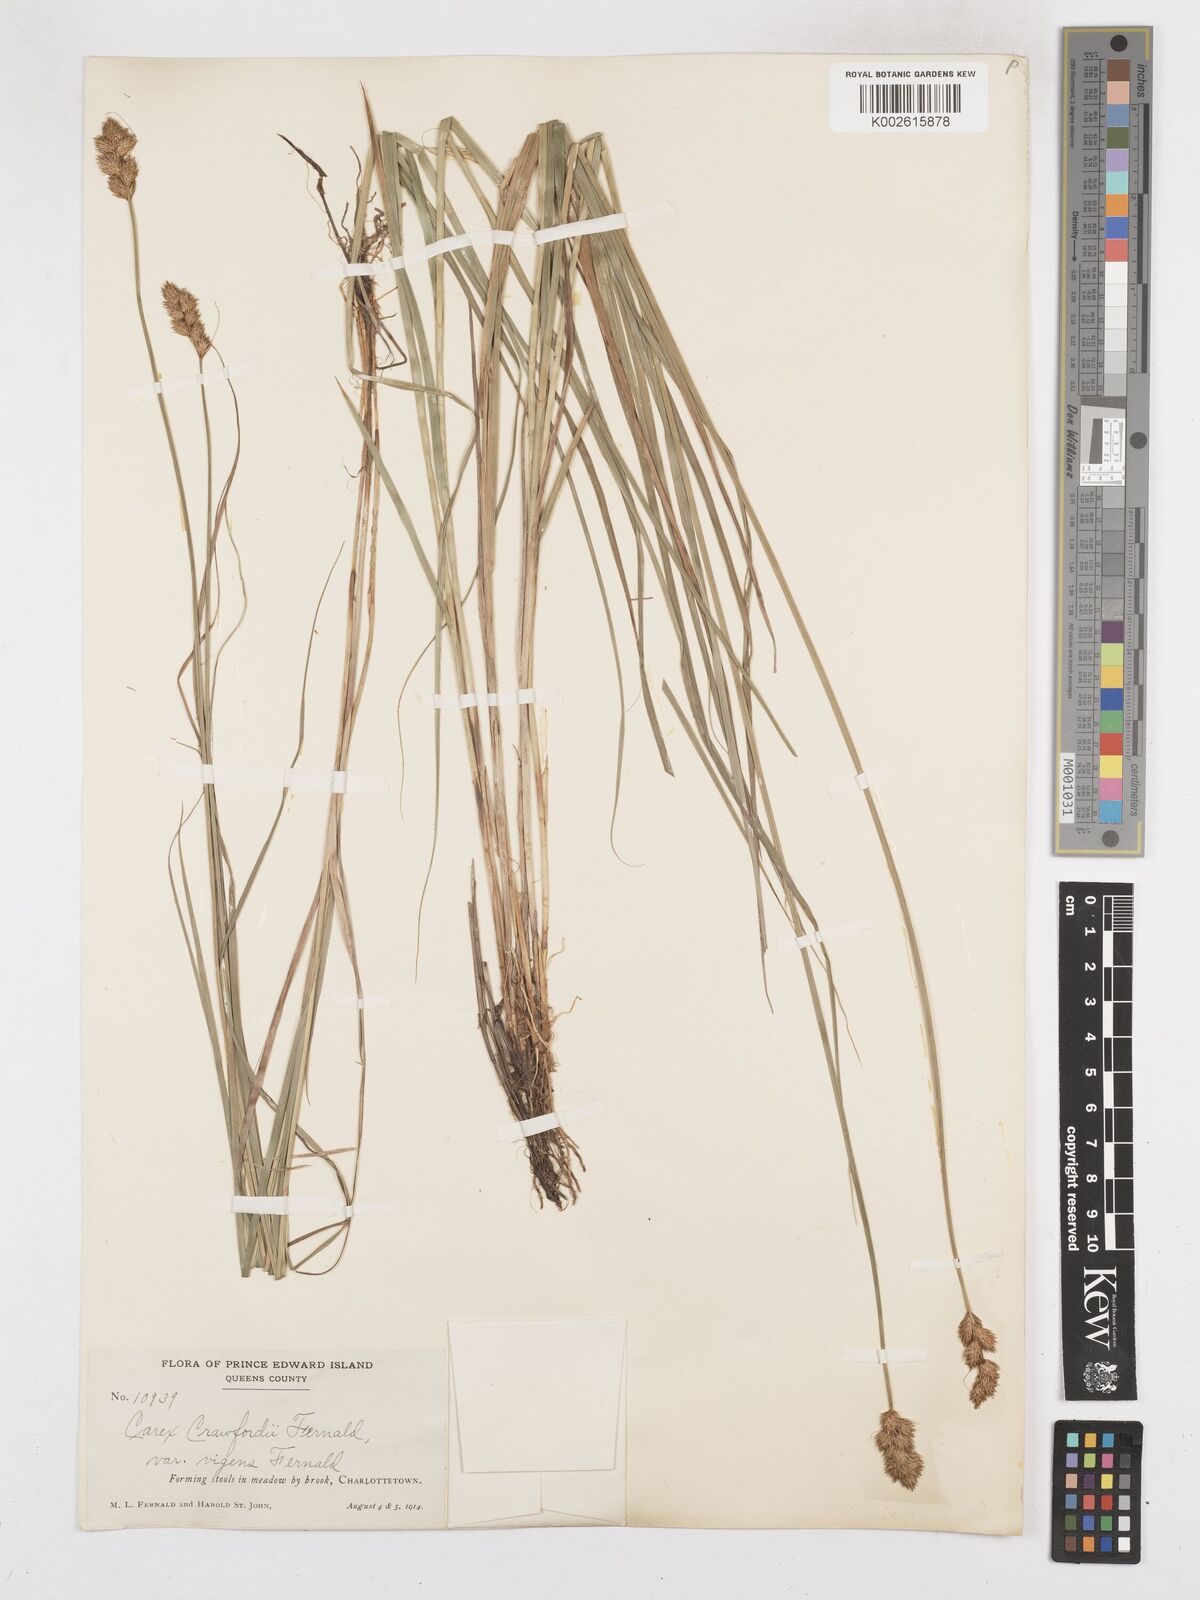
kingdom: Plantae
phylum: Tracheophyta
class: Liliopsida
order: Poales
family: Cyperaceae
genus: Carex
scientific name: Carex crawfordii
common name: Crawford's sedge
